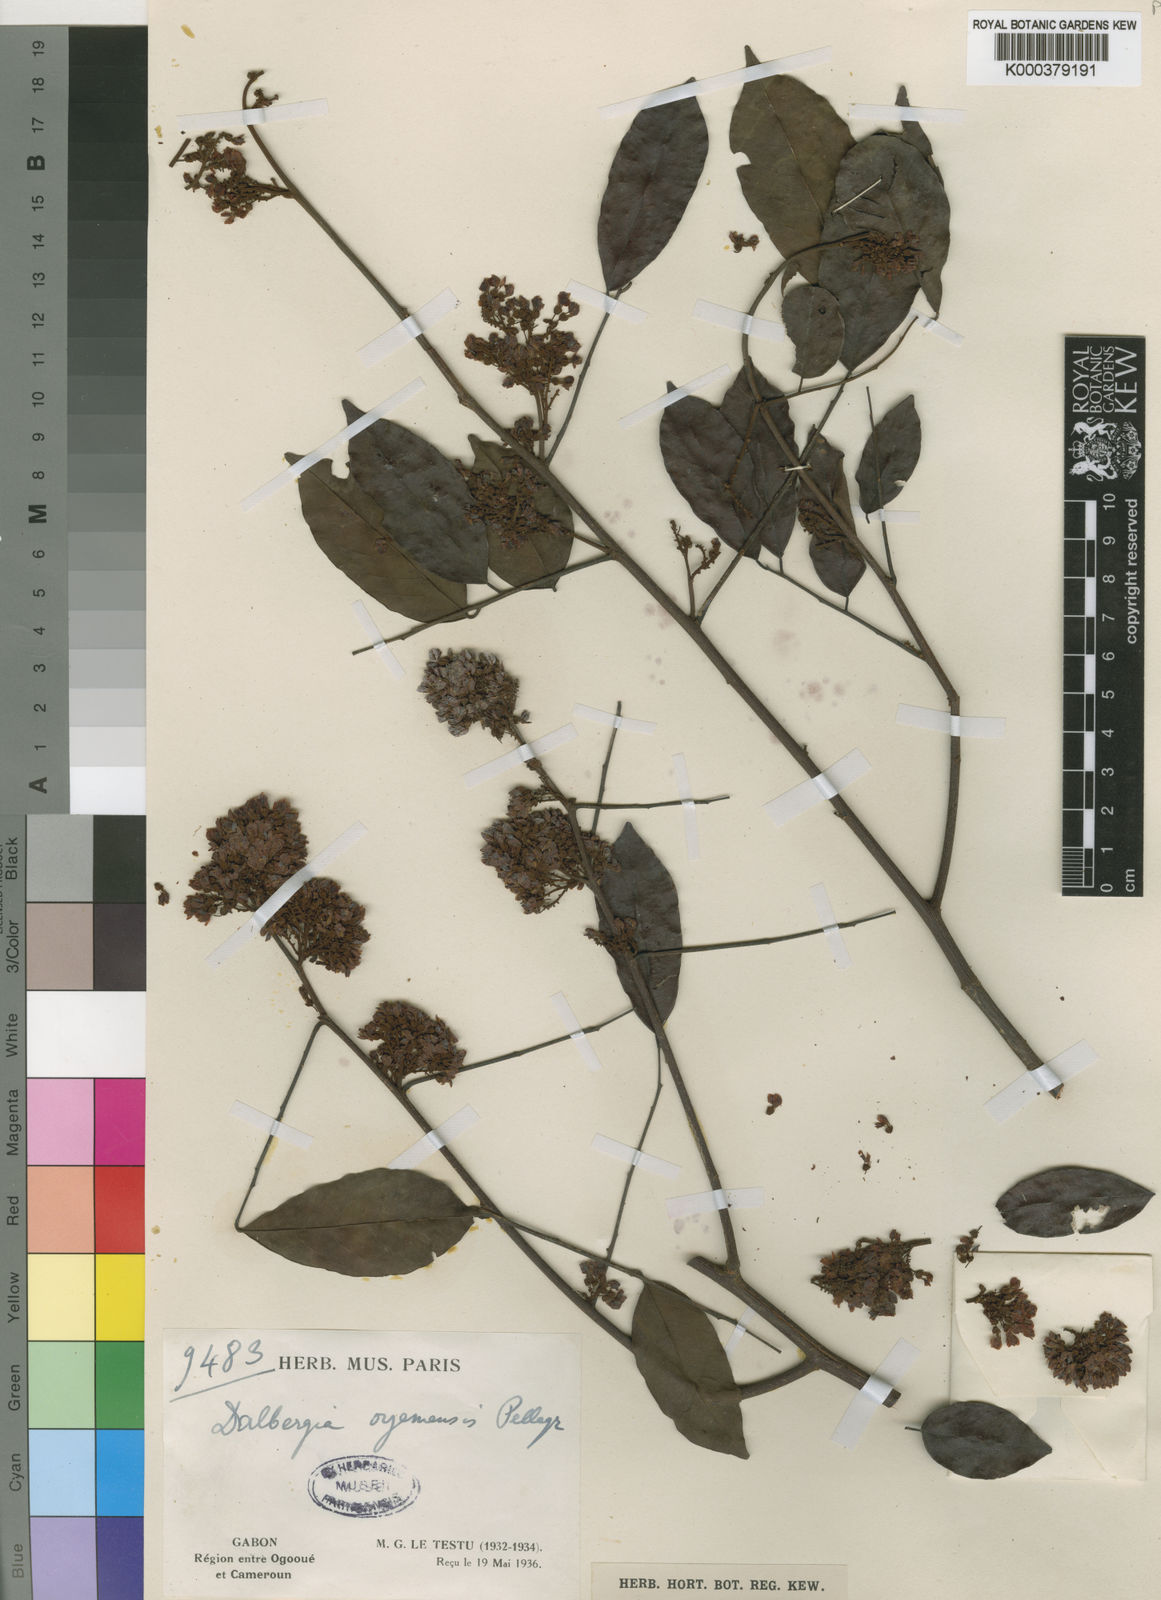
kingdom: Plantae
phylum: Tracheophyta
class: Magnoliopsida
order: Fabales
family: Fabaceae
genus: Dalbergia
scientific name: Dalbergia ovalis
